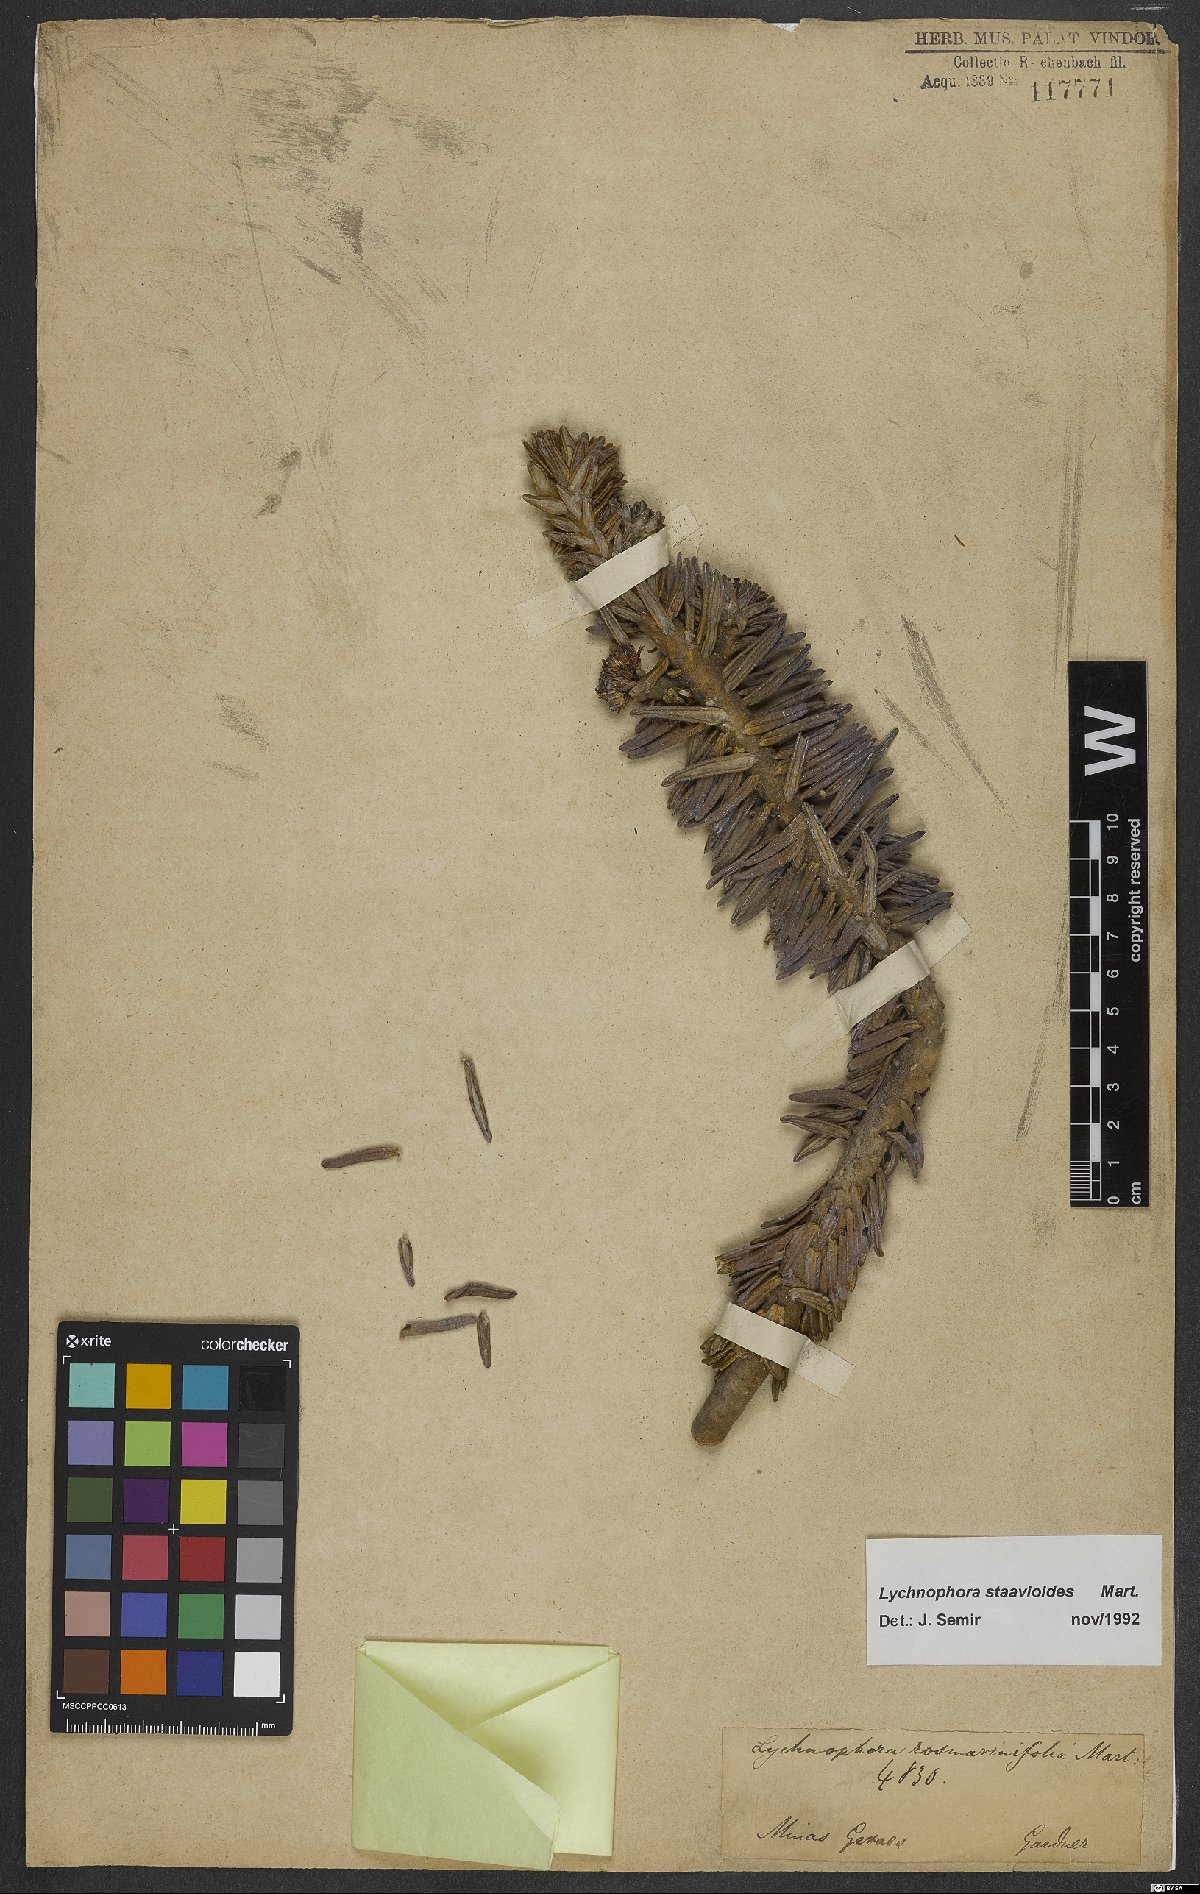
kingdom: Plantae
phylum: Tracheophyta
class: Magnoliopsida
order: Asterales
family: Asteraceae
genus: Lychnophora
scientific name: Lychnophora staavioides
